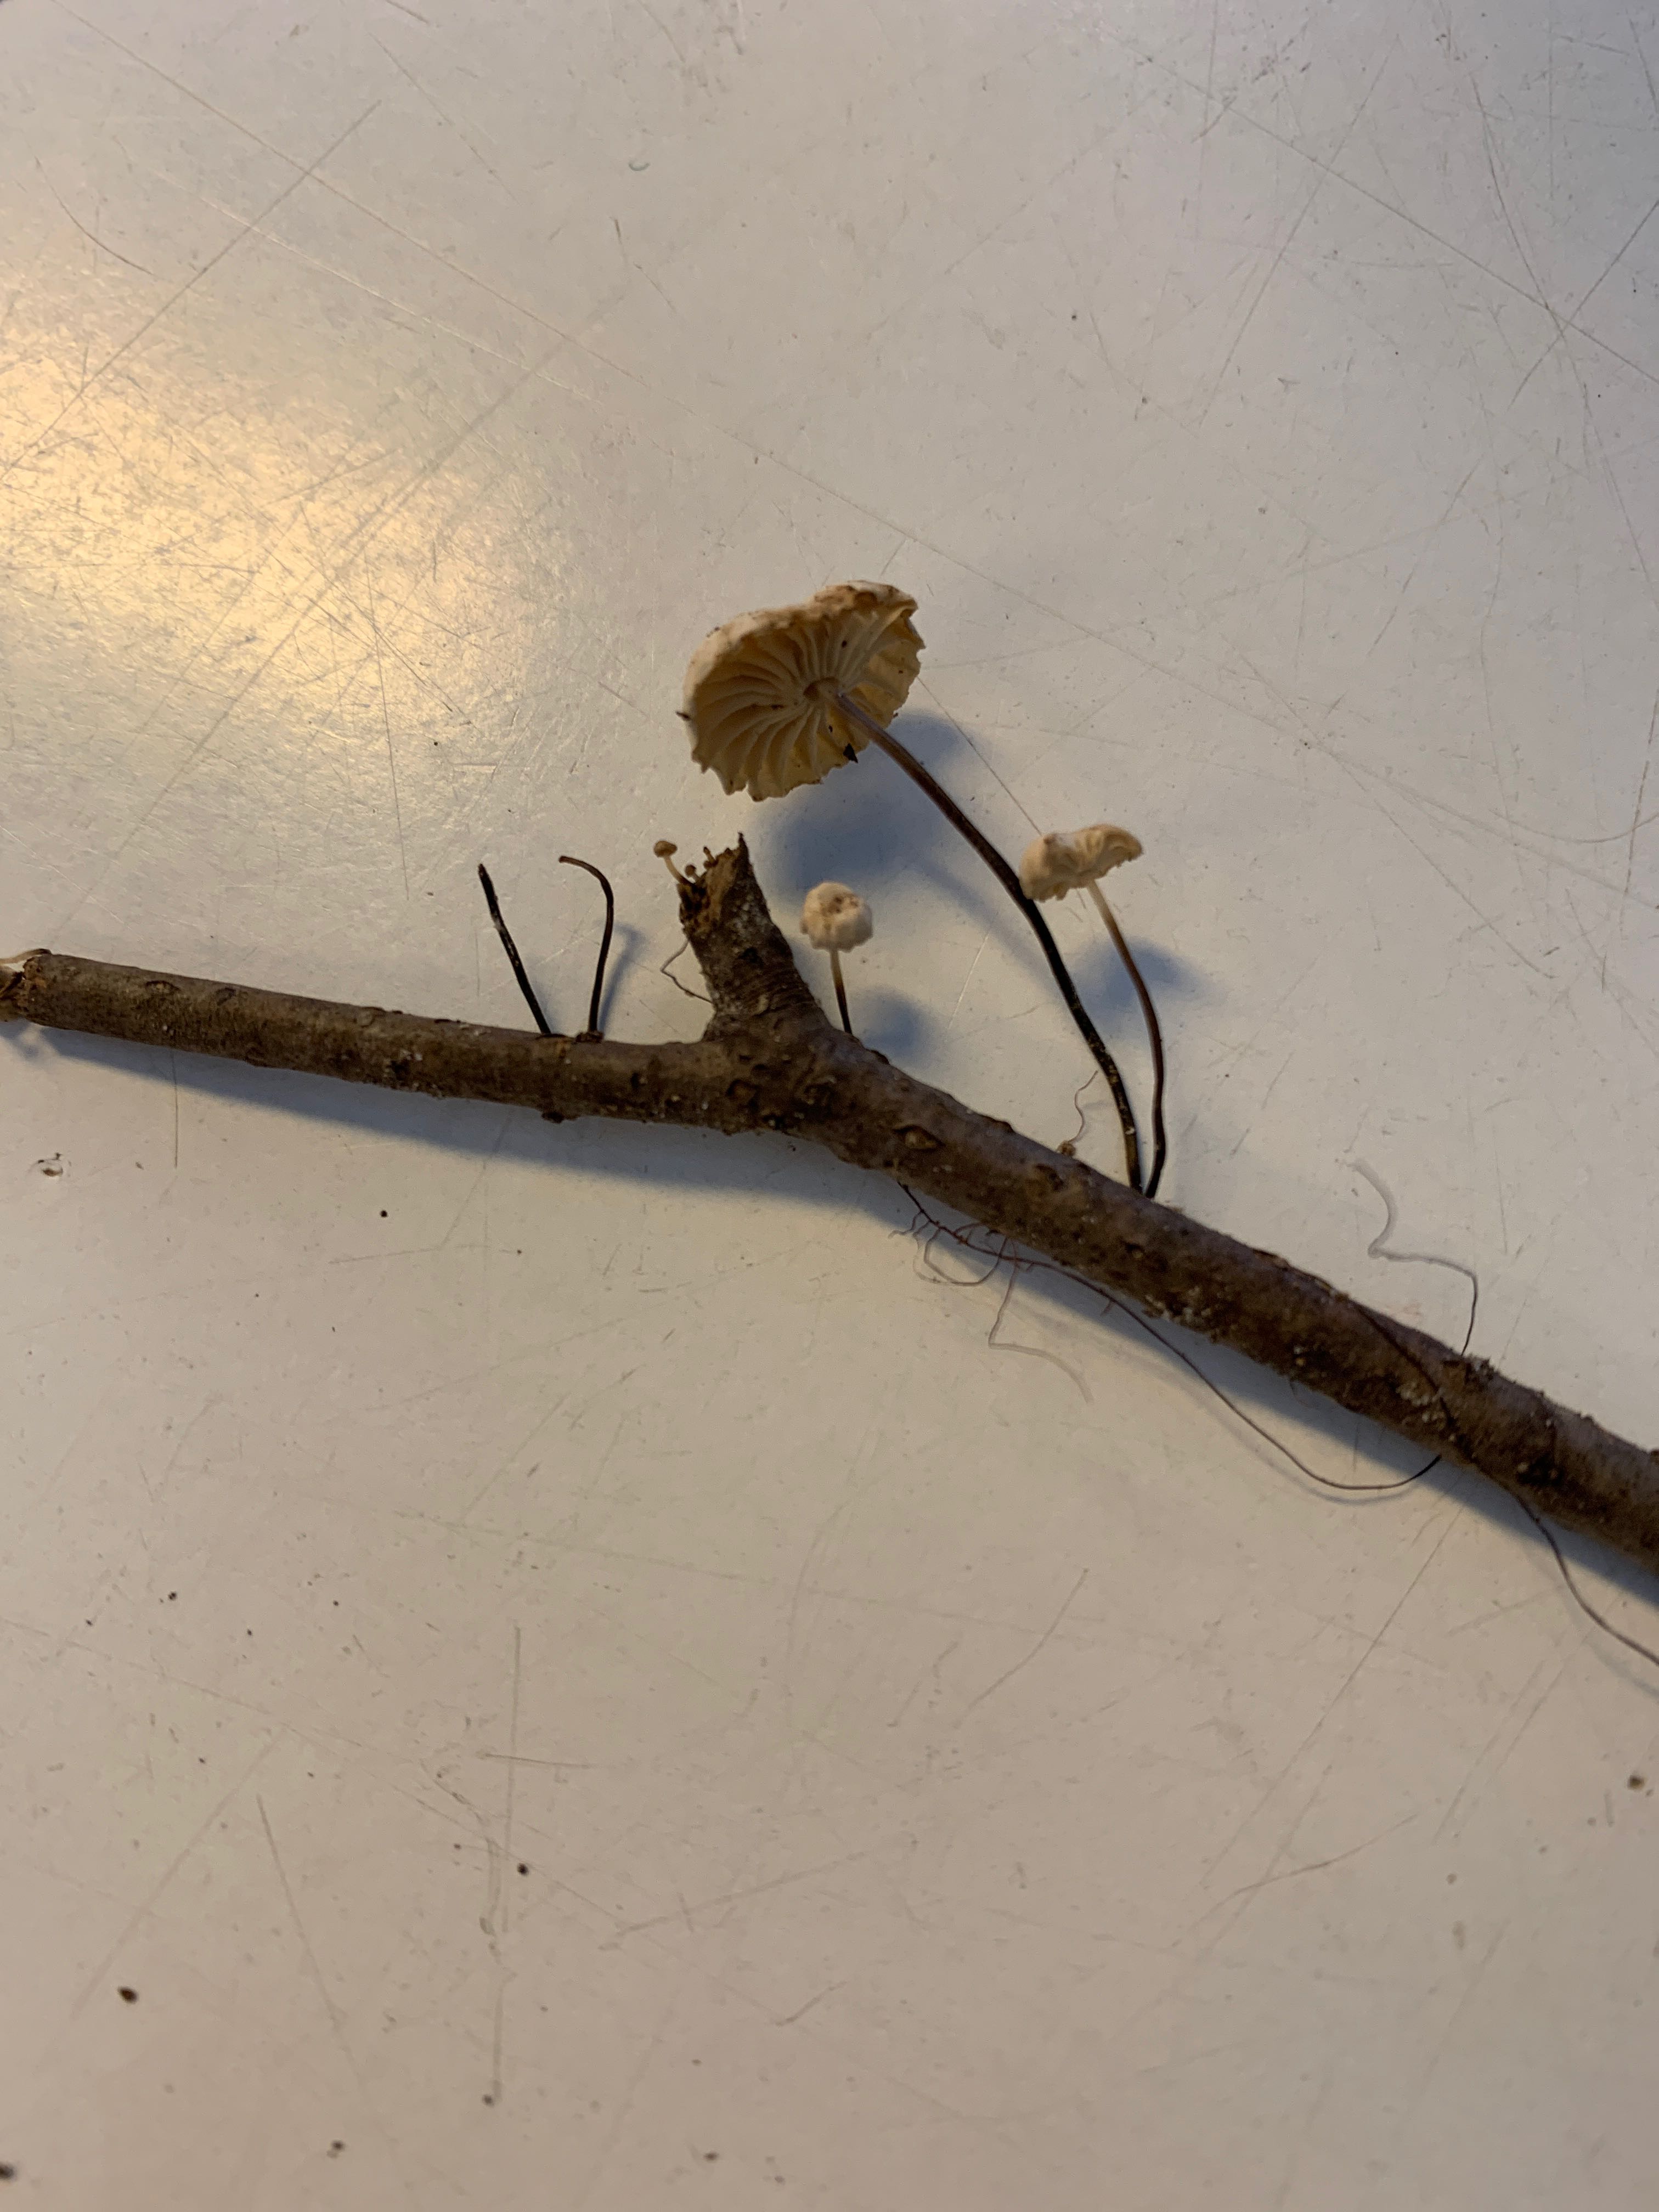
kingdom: Fungi
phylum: Basidiomycota
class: Agaricomycetes
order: Agaricales
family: Marasmiaceae
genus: Marasmius
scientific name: Marasmius rotula
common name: hjul-bruskhat
